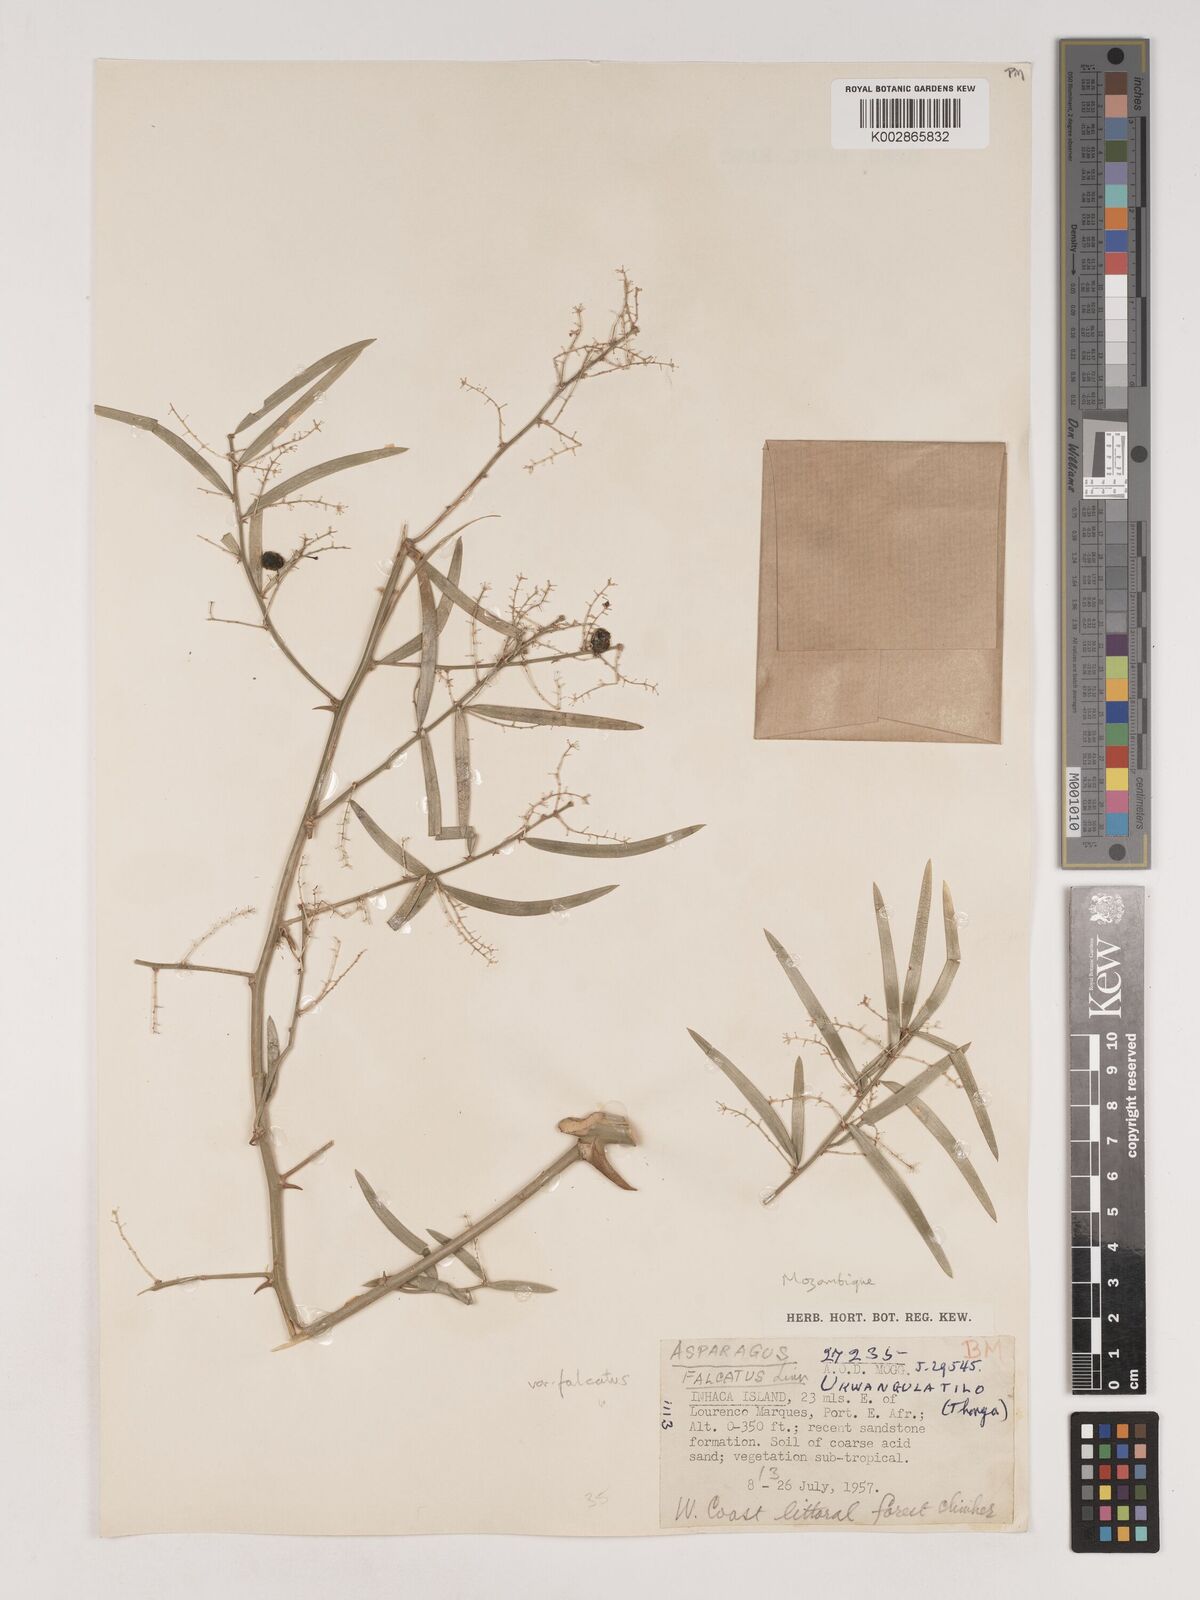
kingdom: Plantae
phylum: Tracheophyta
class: Liliopsida
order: Asparagales
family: Asparagaceae
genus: Asparagus
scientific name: Asparagus falcatus
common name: Asparagus
